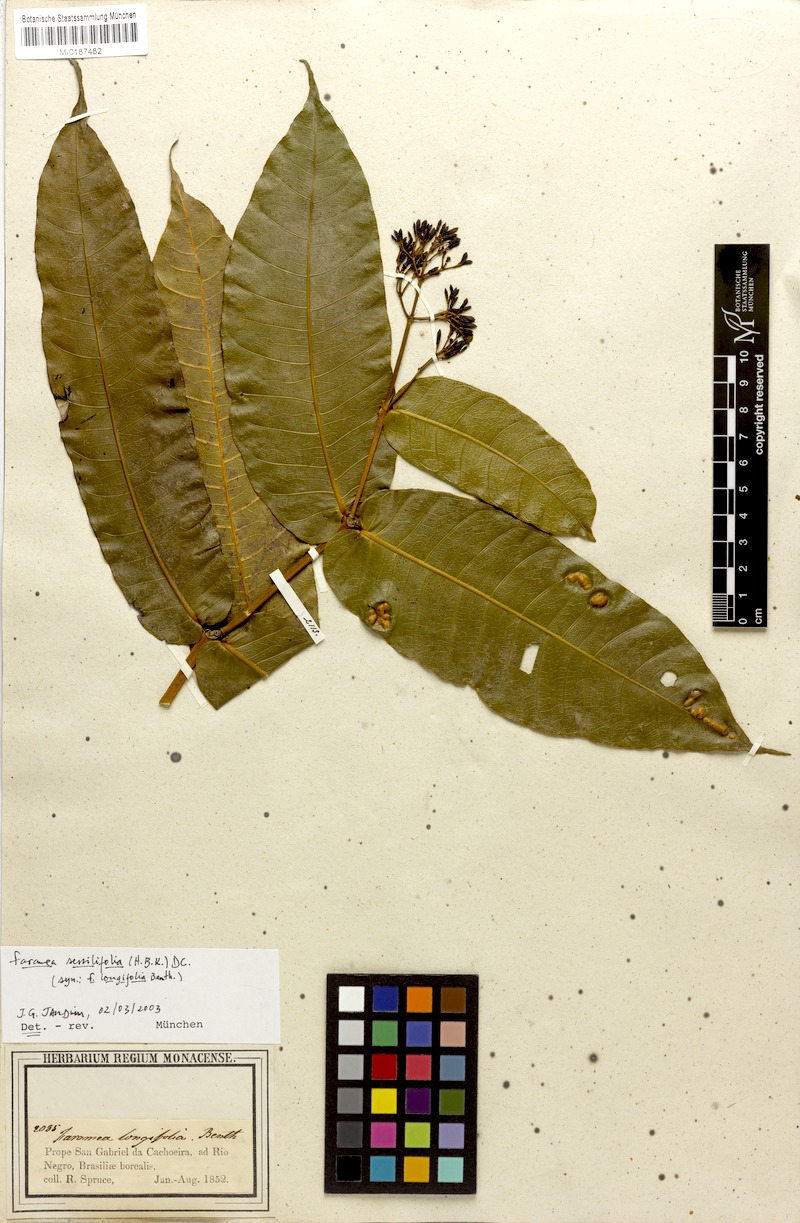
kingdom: Plantae
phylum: Tracheophyta
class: Magnoliopsida
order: Gentianales
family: Rubiaceae
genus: Faramea
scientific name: Faramea sessilifolia
